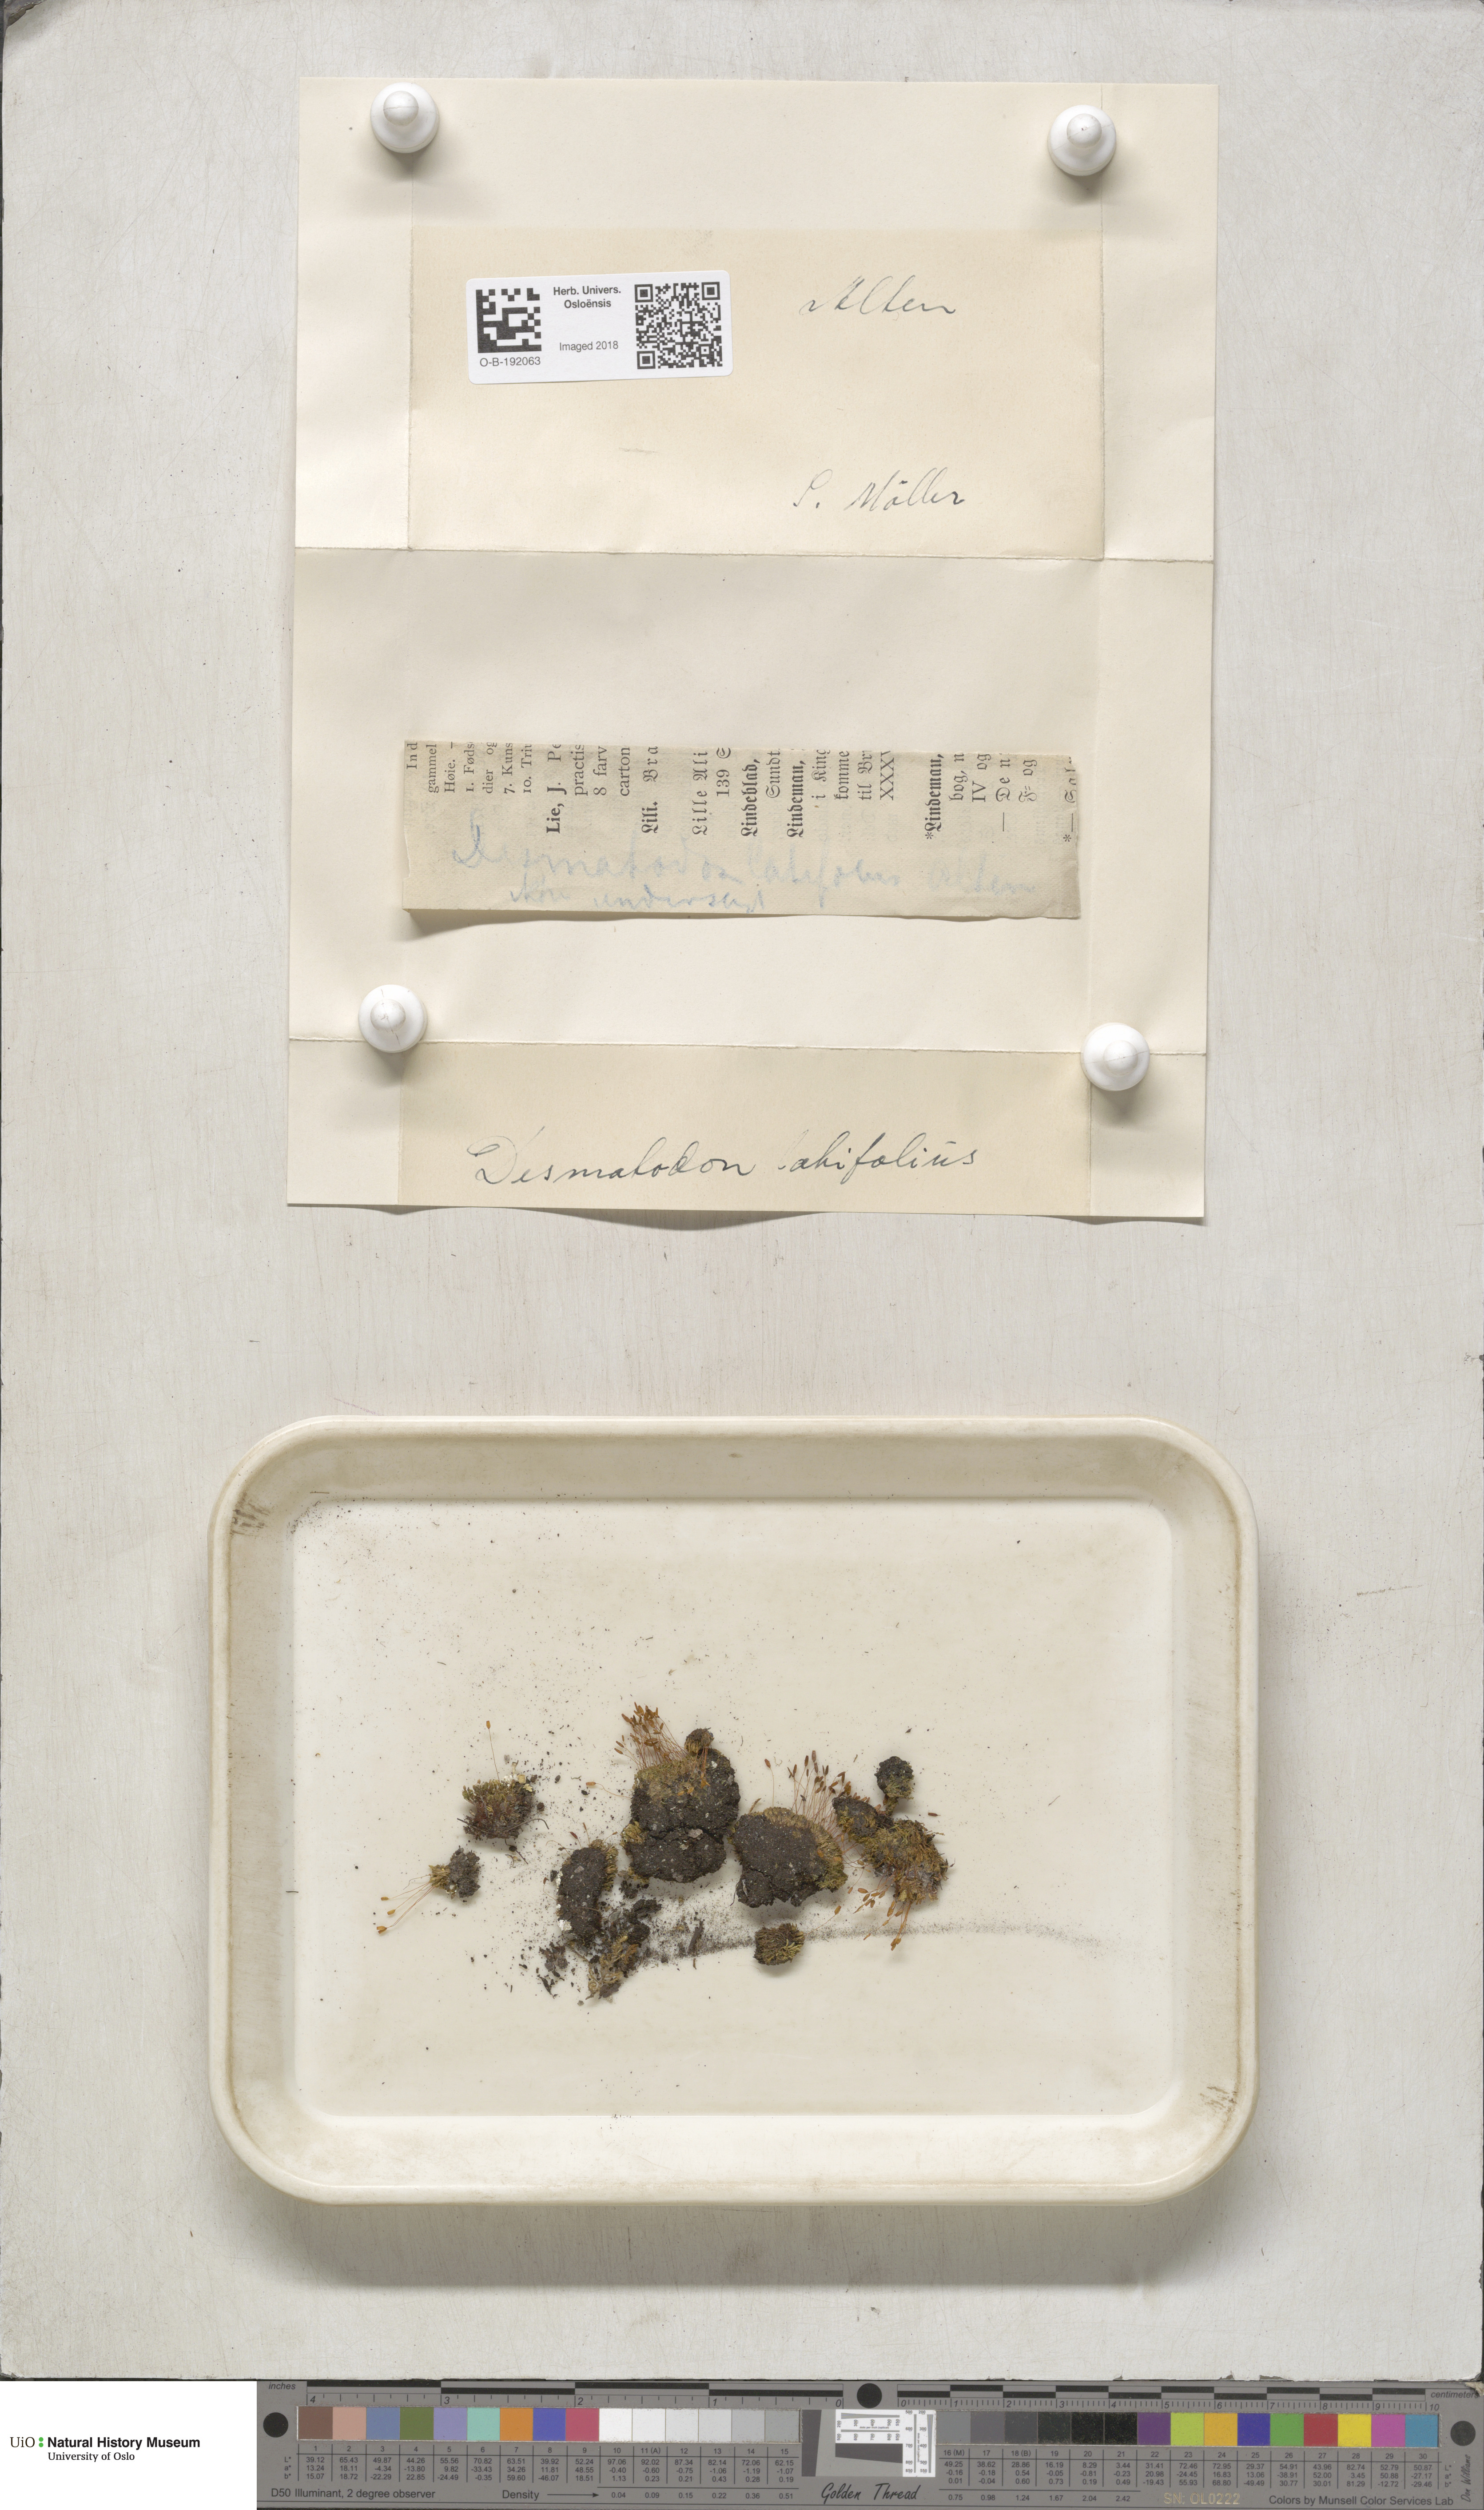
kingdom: Plantae
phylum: Bryophyta
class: Bryopsida
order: Pottiales
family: Pottiaceae
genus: Tortula
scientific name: Tortula hoppeana
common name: Hoppe's screw moss
